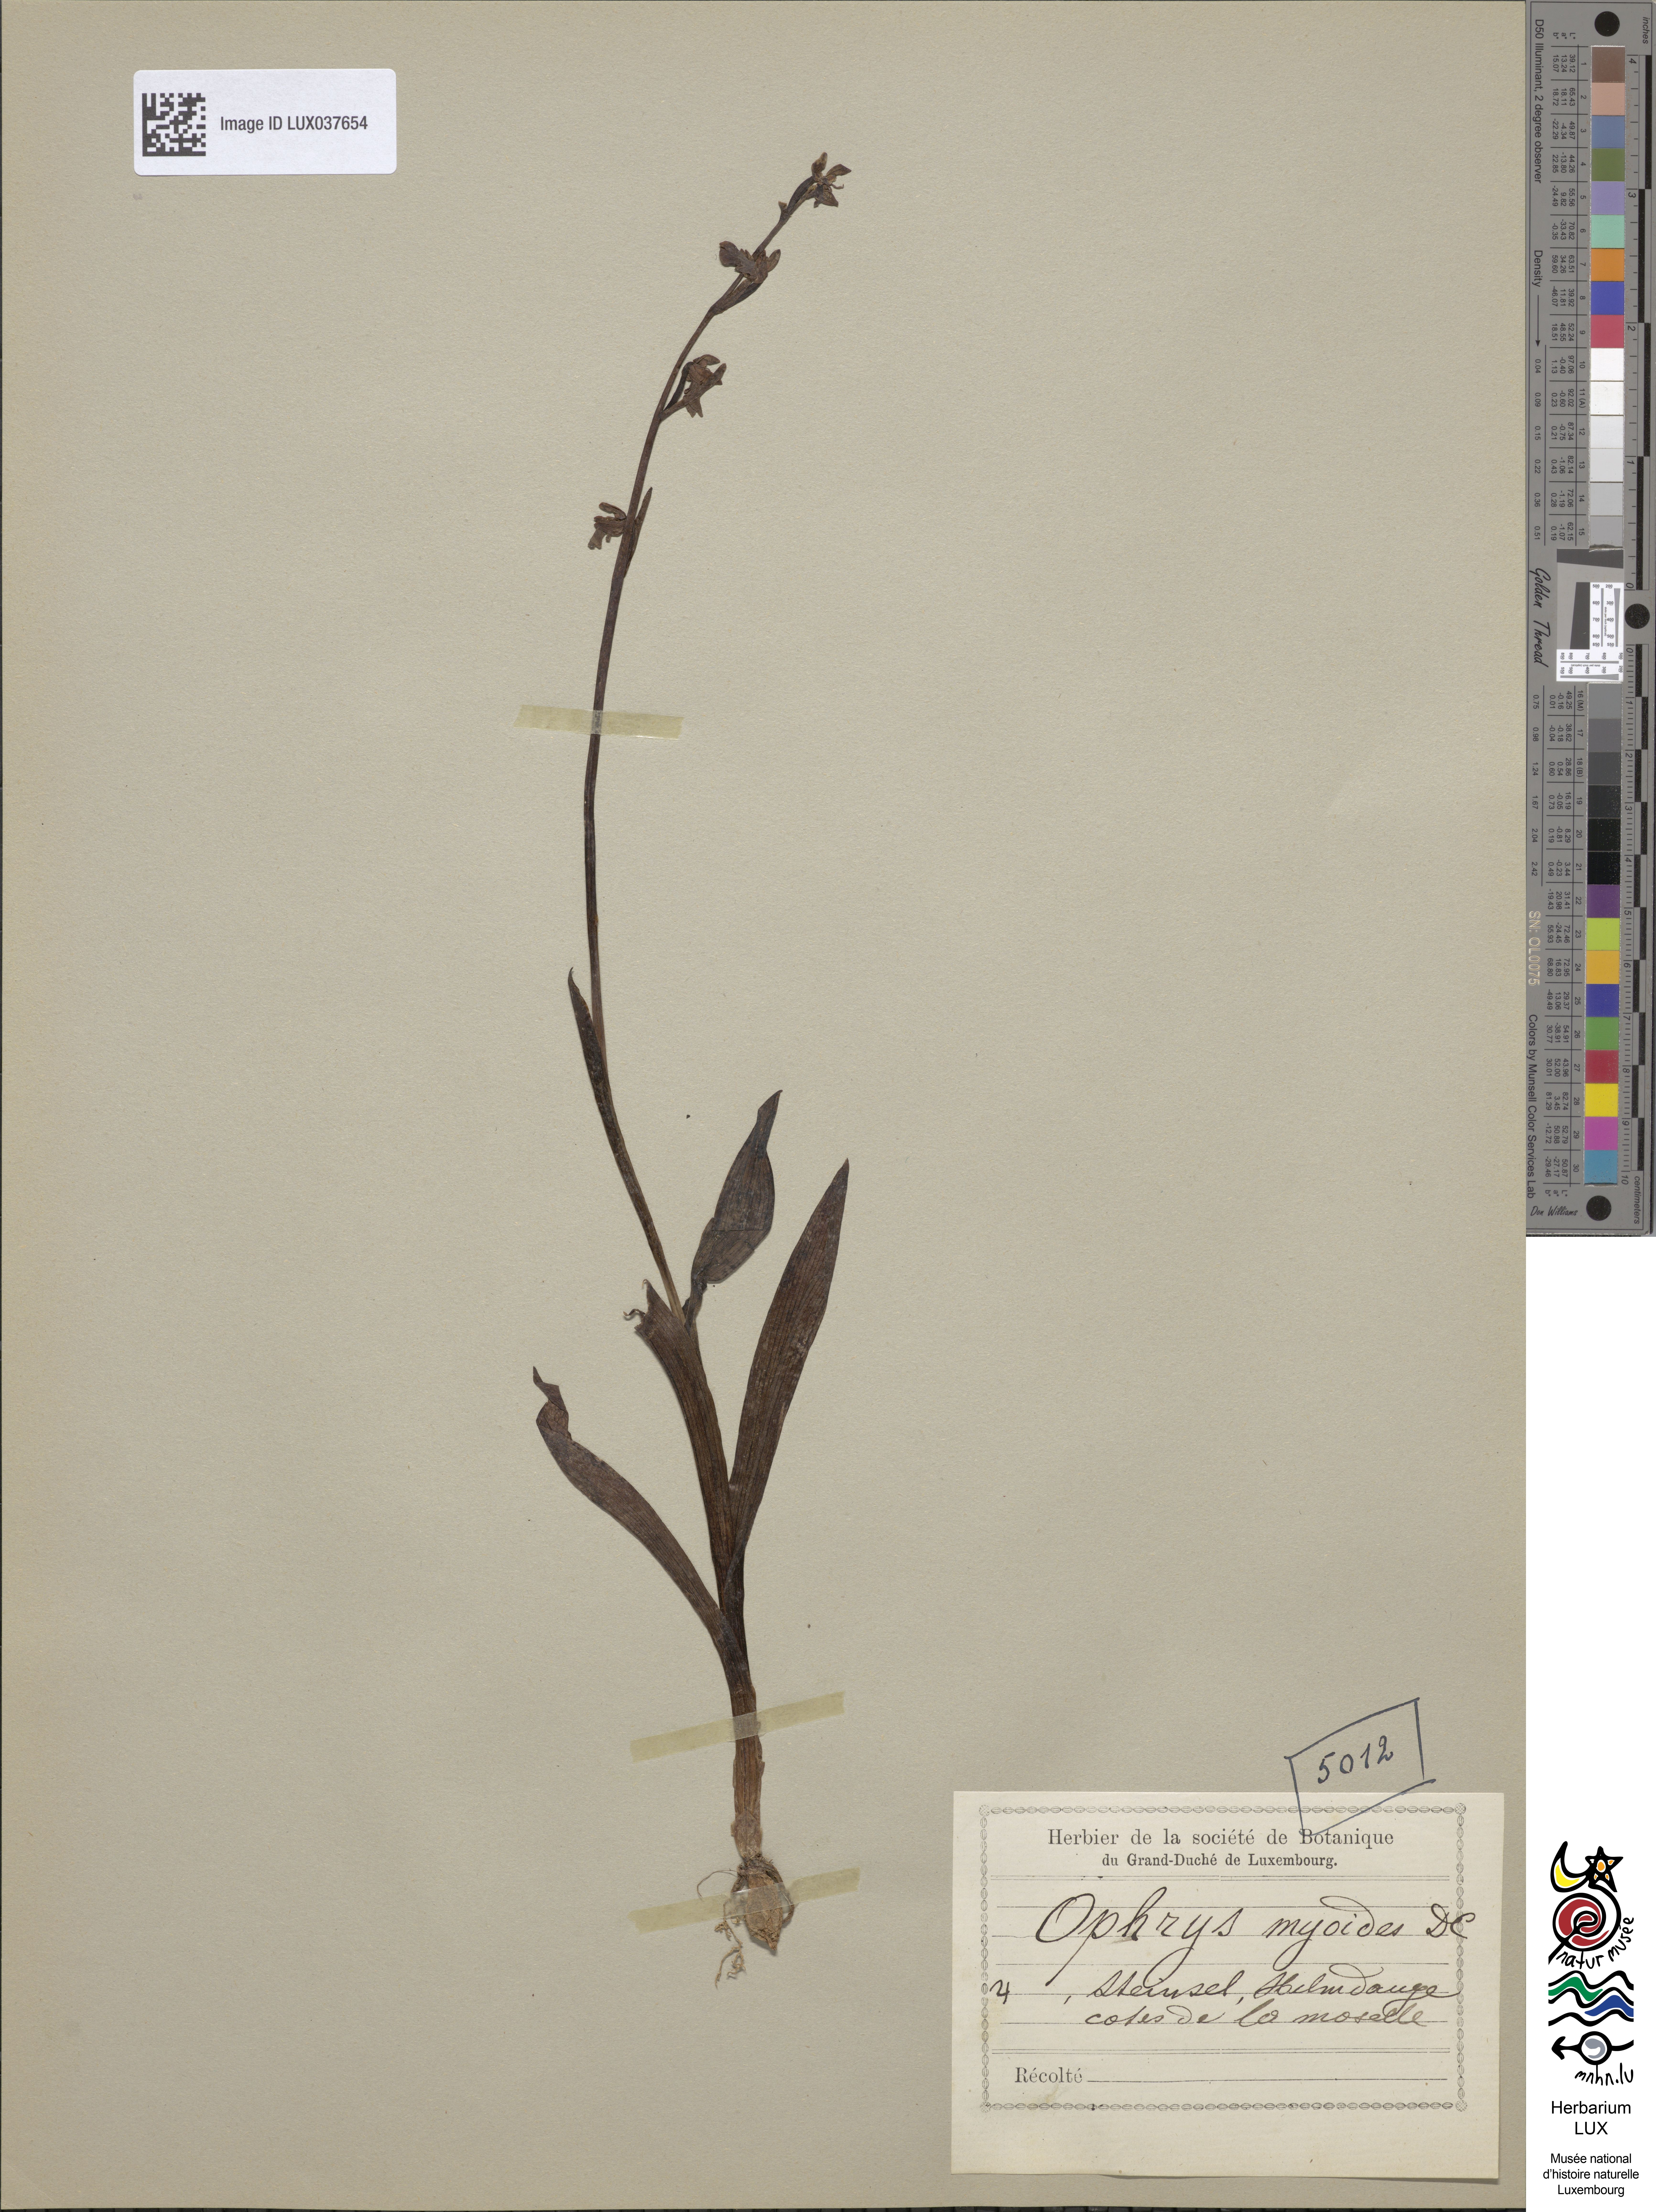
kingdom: Plantae
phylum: Tracheophyta
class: Liliopsida
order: Asparagales
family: Orchidaceae
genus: Ophrys
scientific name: Ophrys insectifera
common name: Fly orchid
